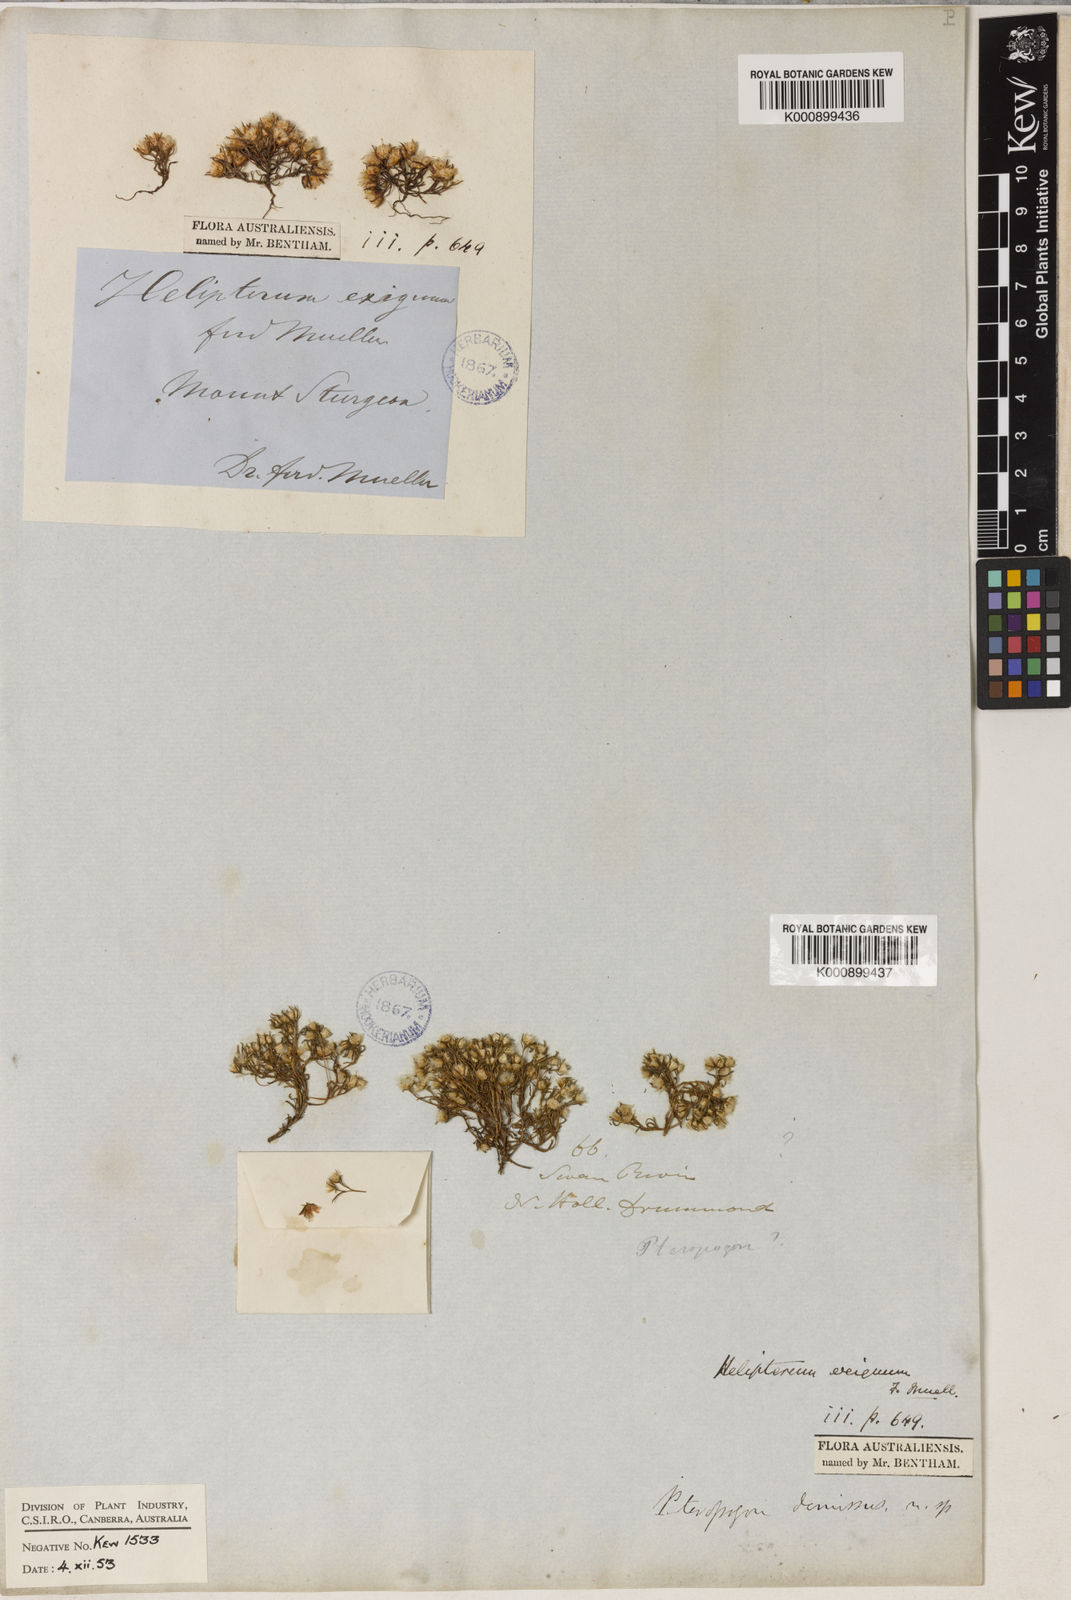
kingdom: Plantae
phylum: Tracheophyta
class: Magnoliopsida
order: Asterales
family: Asteraceae
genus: Hyalosperma
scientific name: Hyalosperma demissum
